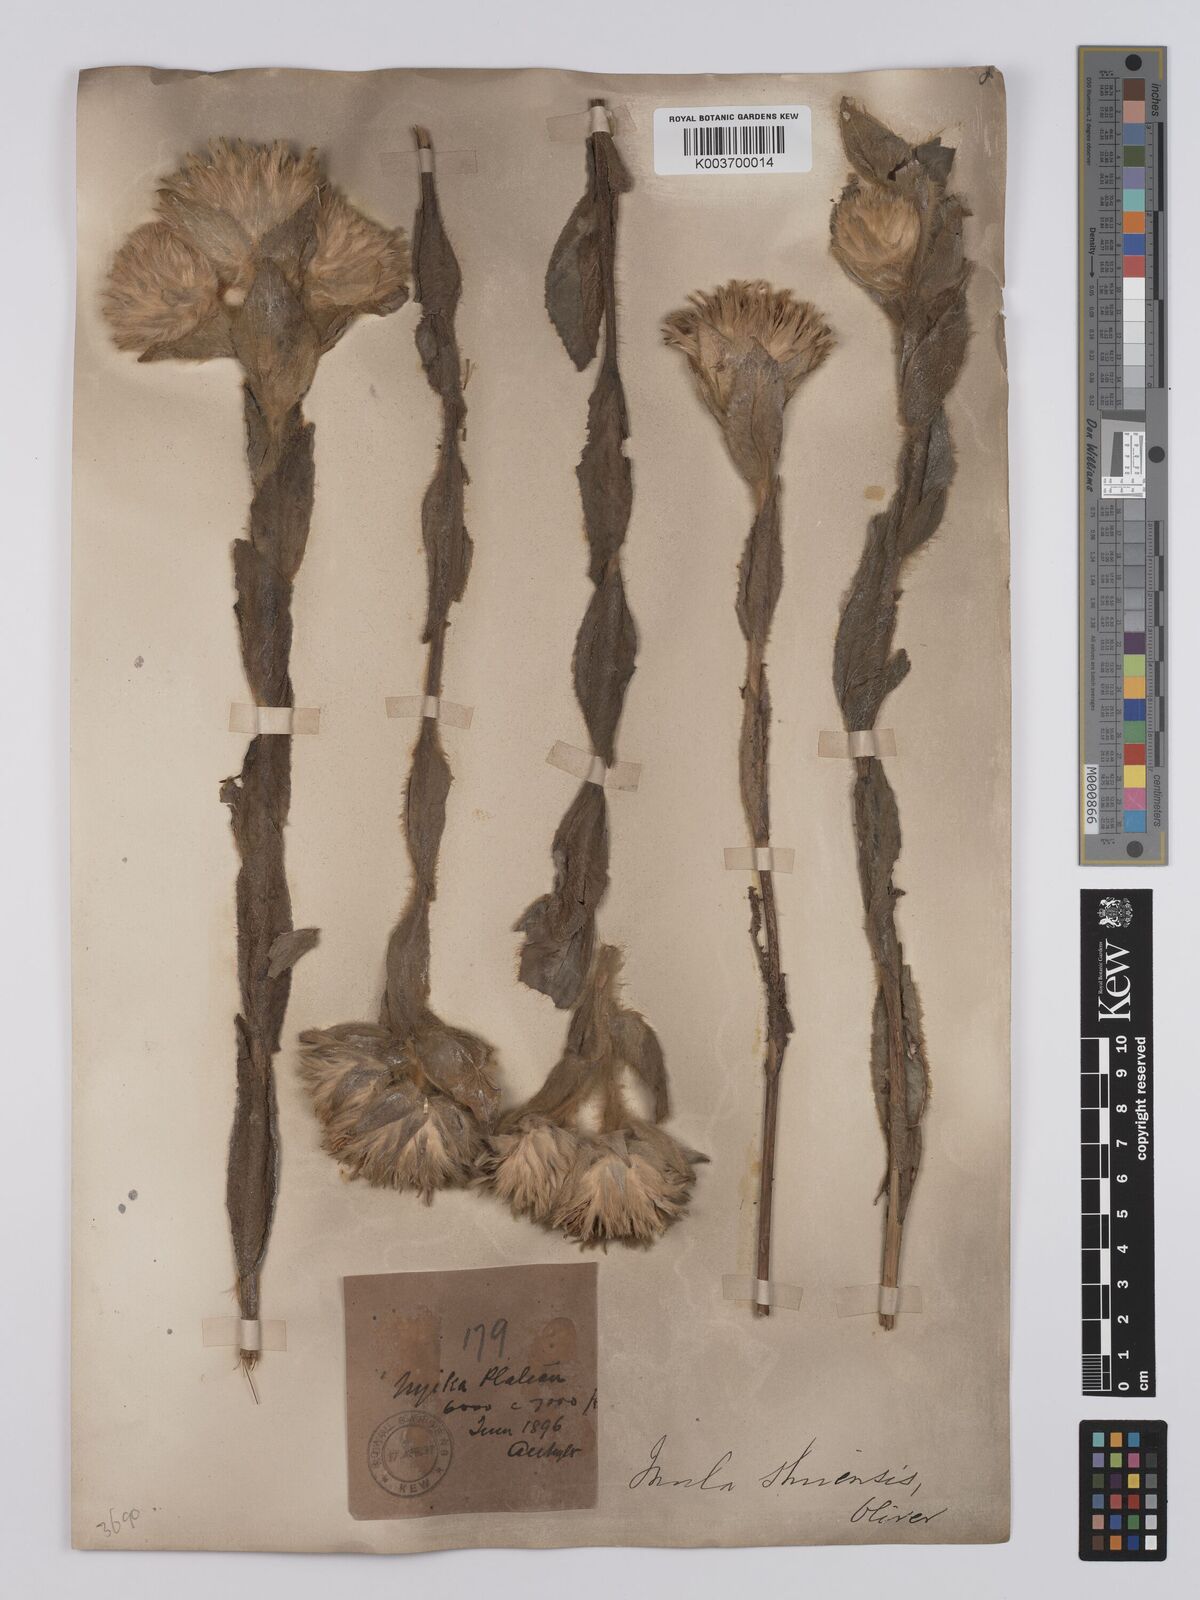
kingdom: Plantae
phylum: Tracheophyta
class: Magnoliopsida
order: Asterales
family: Asteraceae
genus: Monactinocephalus
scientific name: Monactinocephalus shirensis
